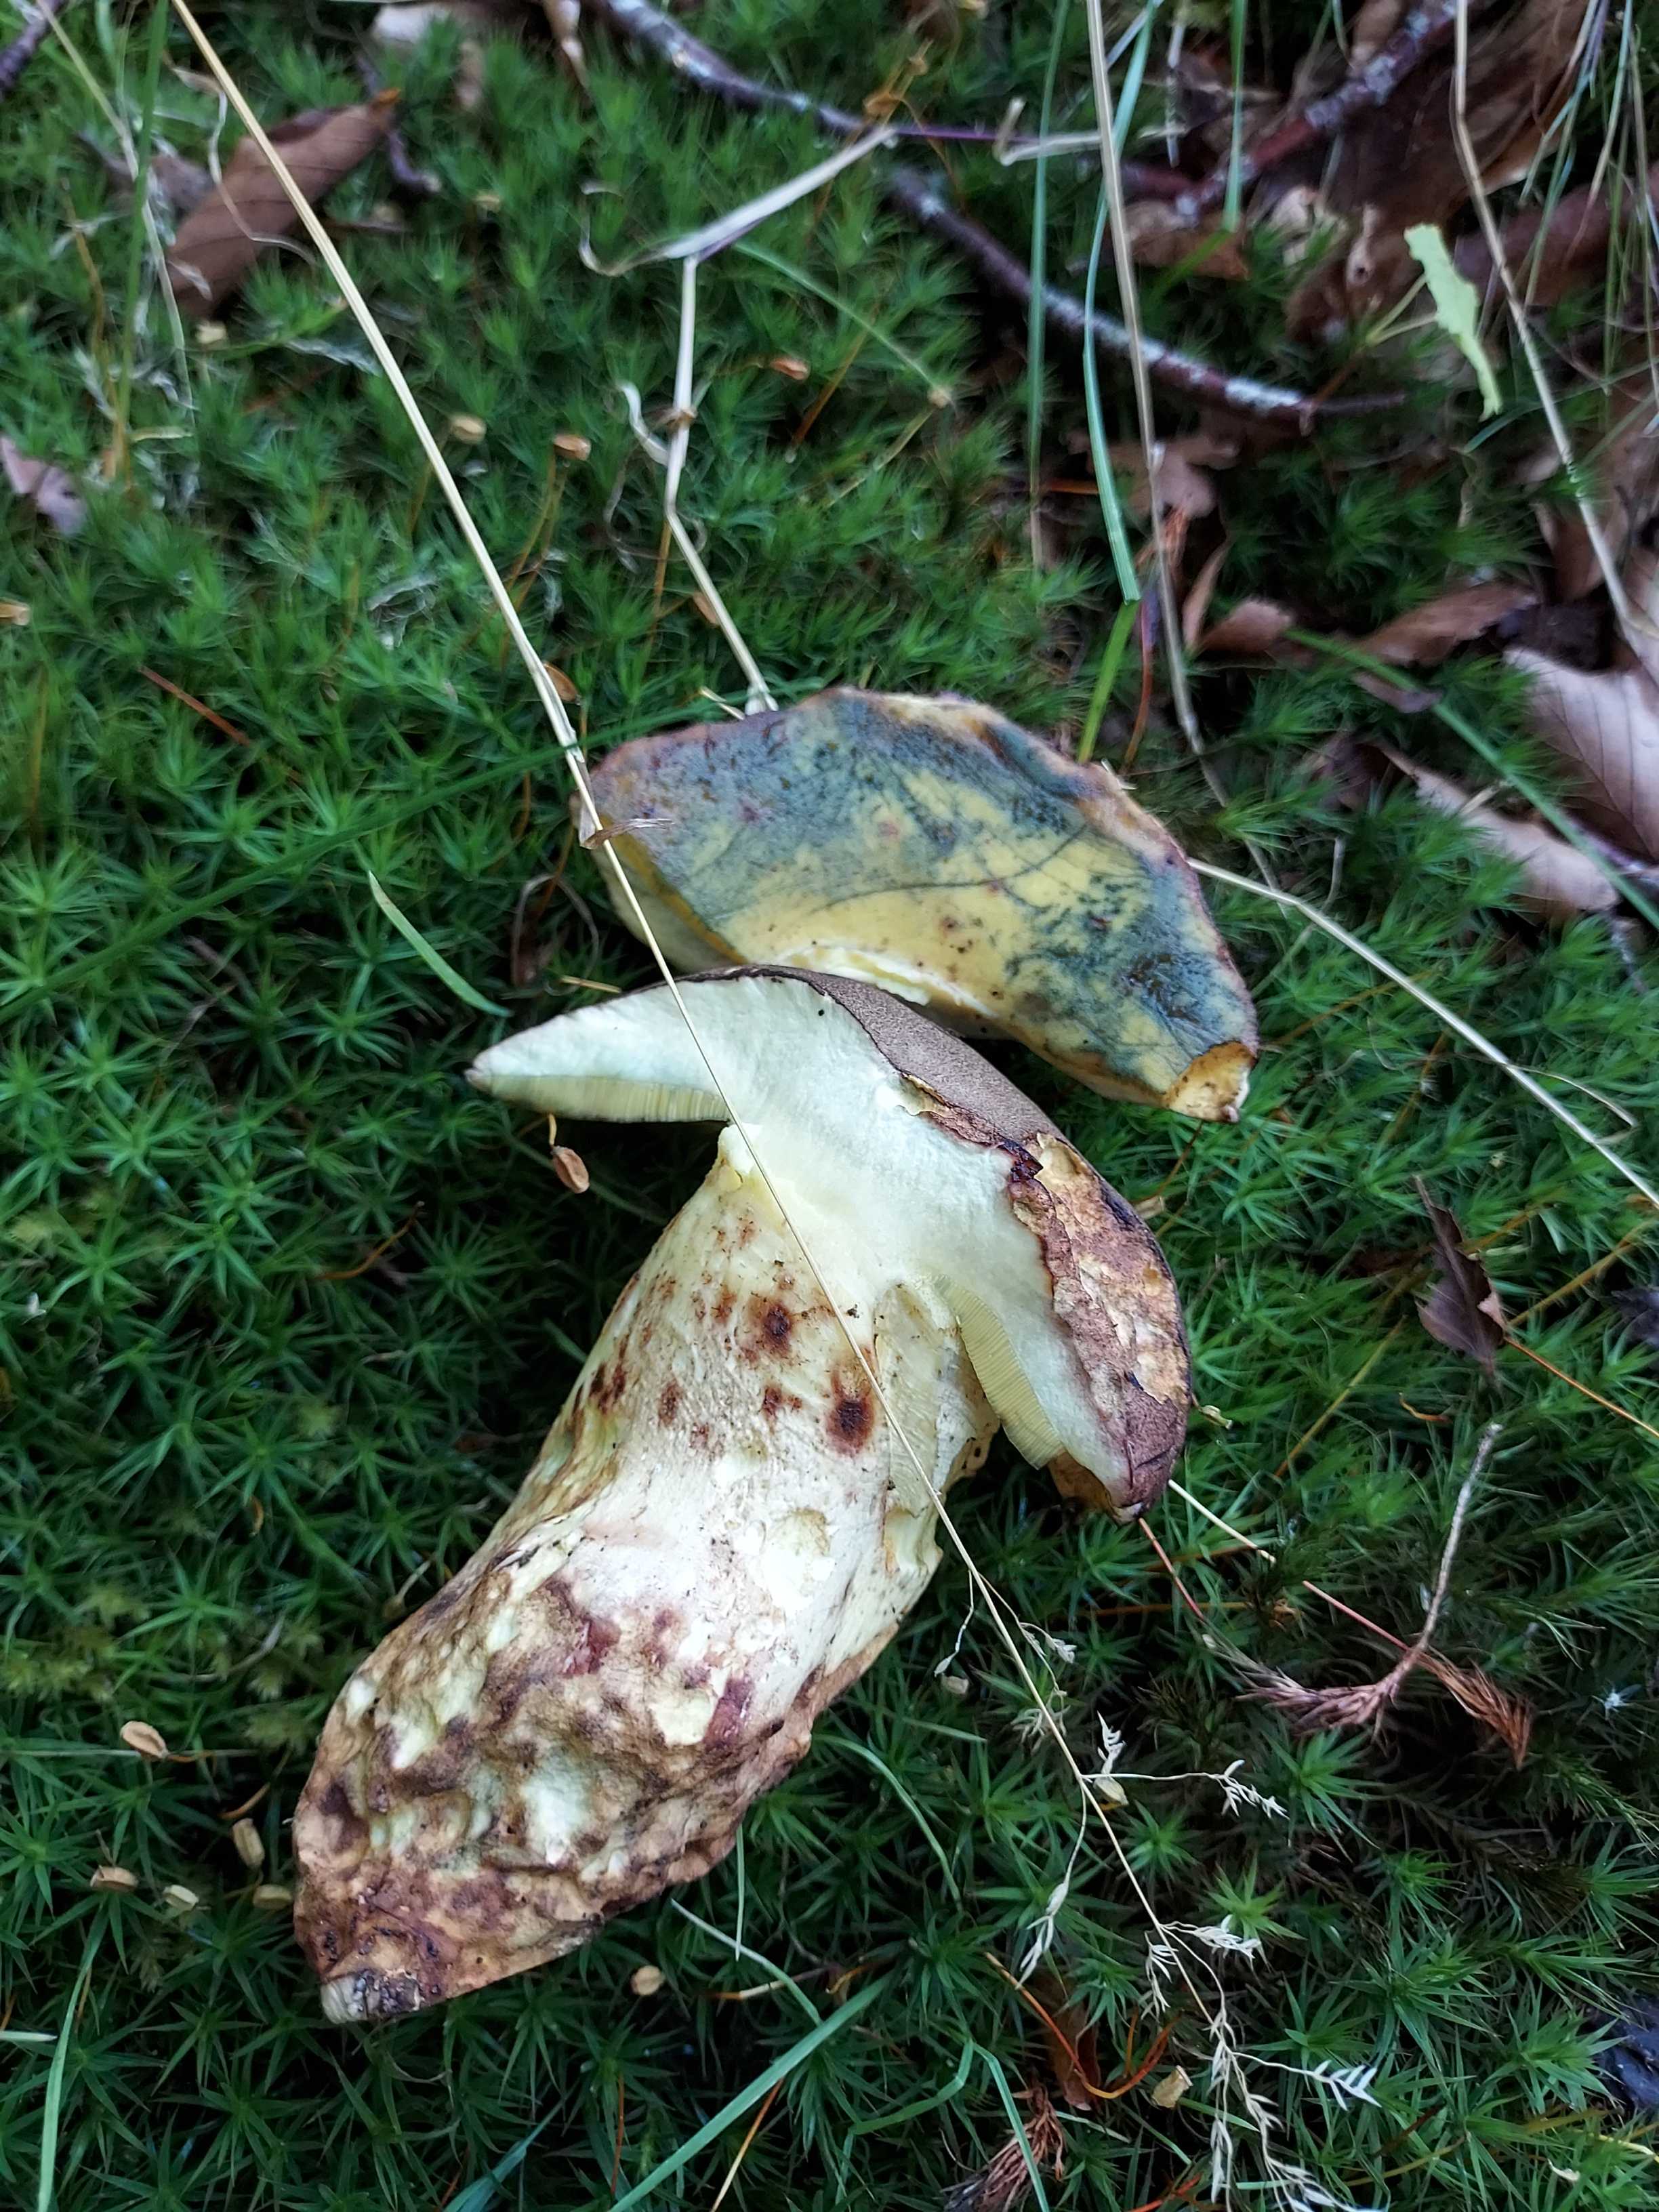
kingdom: Fungi
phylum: Basidiomycota
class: Agaricomycetes
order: Boletales
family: Boletaceae
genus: Butyriboletus
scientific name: Butyriboletus
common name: smørrørhat
